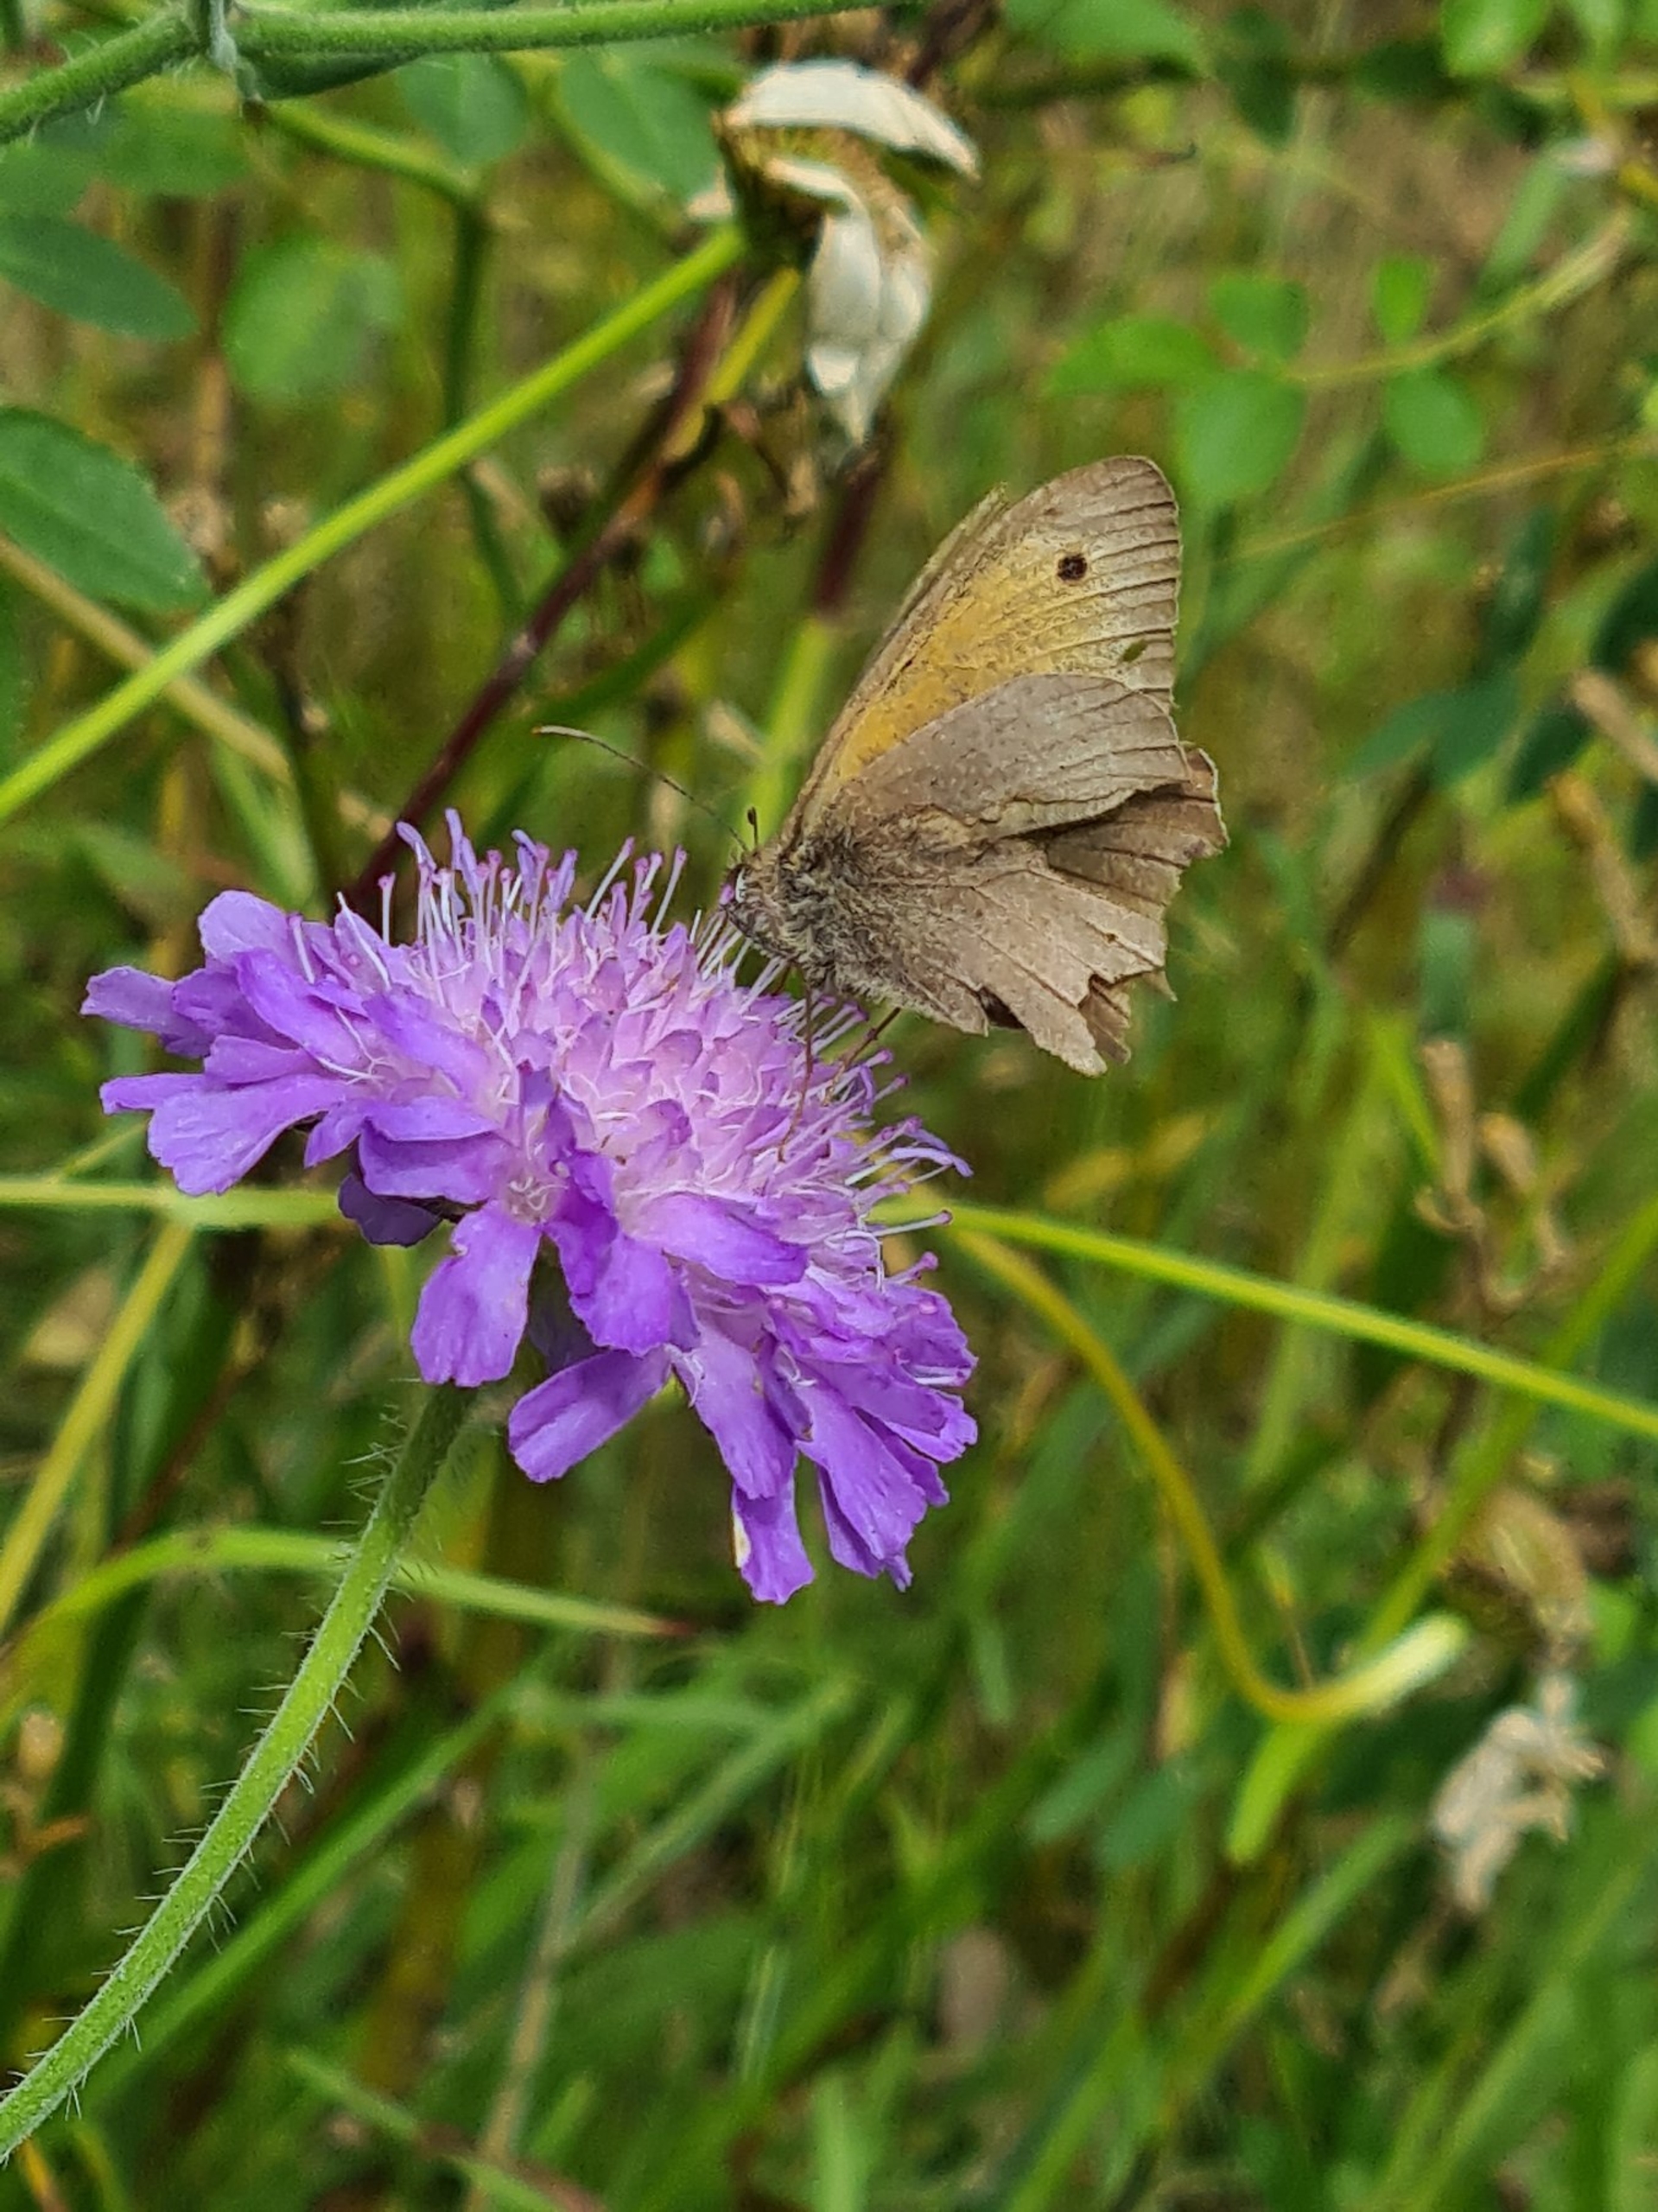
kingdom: Animalia
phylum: Arthropoda
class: Insecta
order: Lepidoptera
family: Nymphalidae
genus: Maniola
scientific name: Maniola jurtina
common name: Græsrandøje
